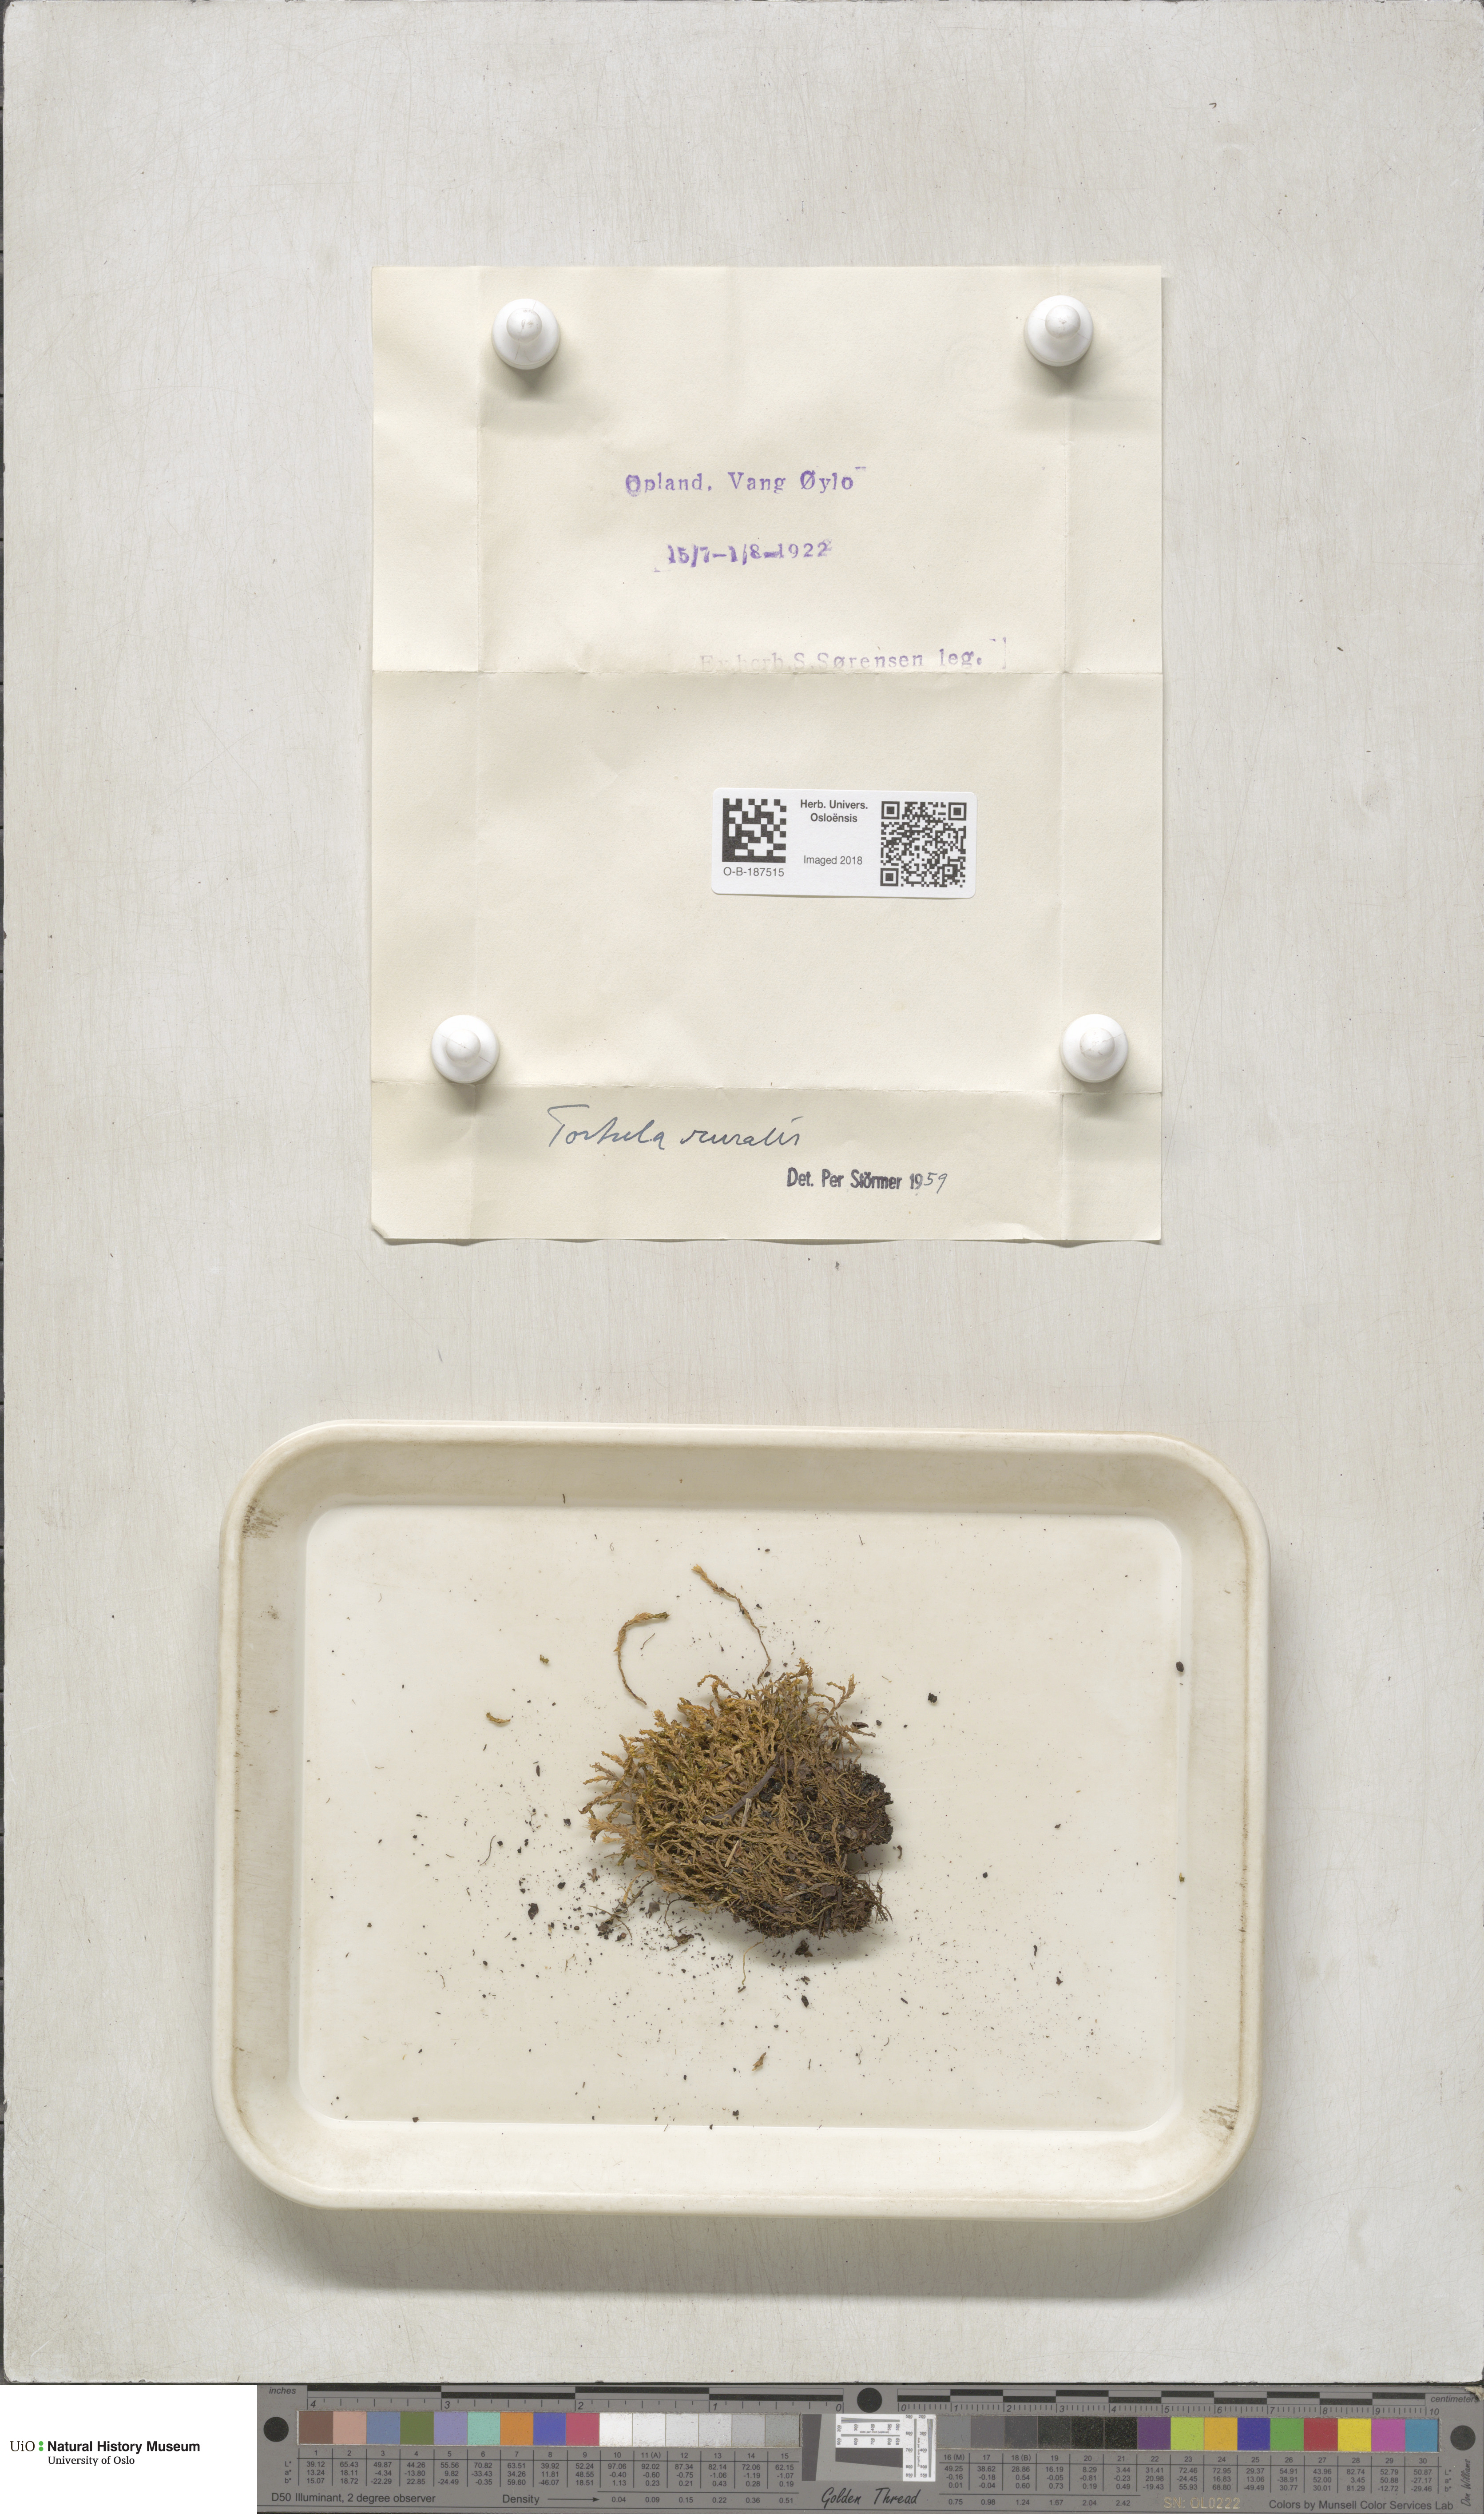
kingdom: Plantae
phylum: Bryophyta
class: Bryopsida
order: Pottiales
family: Pottiaceae
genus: Syntrichia
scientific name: Syntrichia ruralis
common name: Sidewalk screw moss
